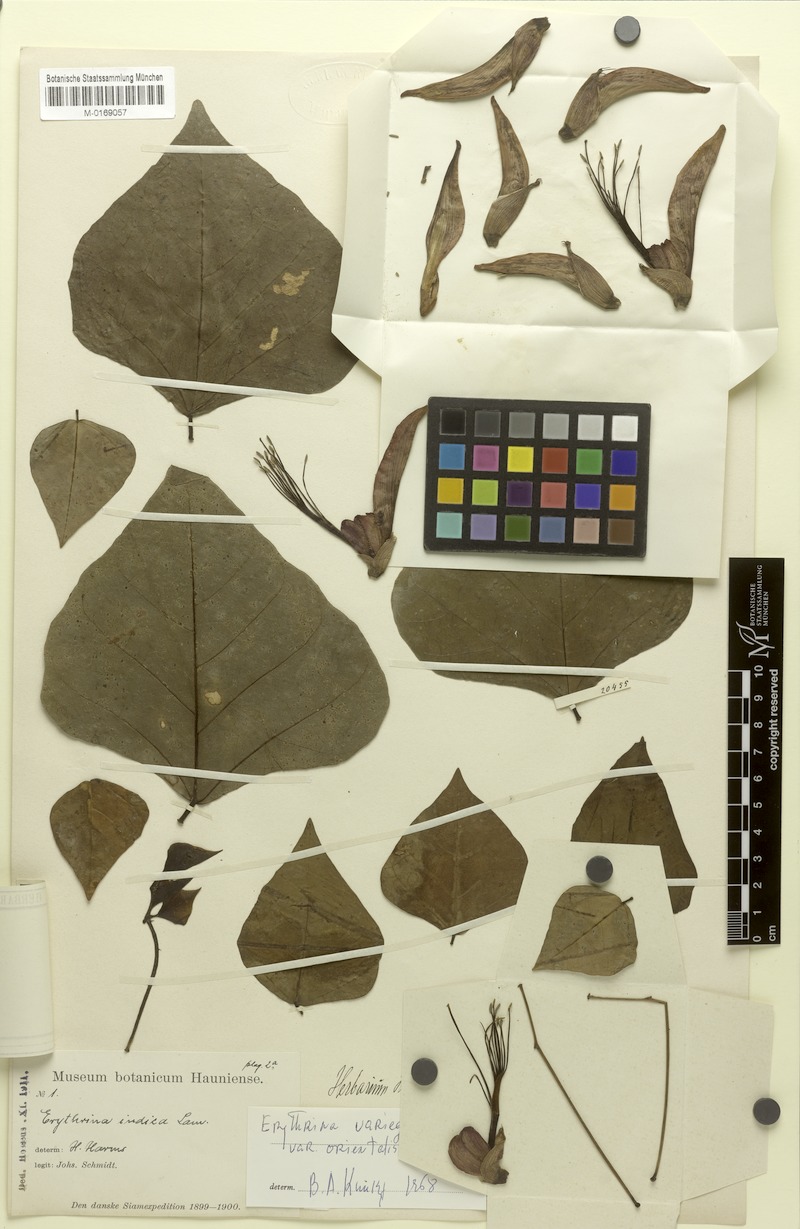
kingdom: Plantae
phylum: Tracheophyta
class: Magnoliopsida
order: Fabales
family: Fabaceae
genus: Erythrina
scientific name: Erythrina variegata
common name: Indian coral tree
